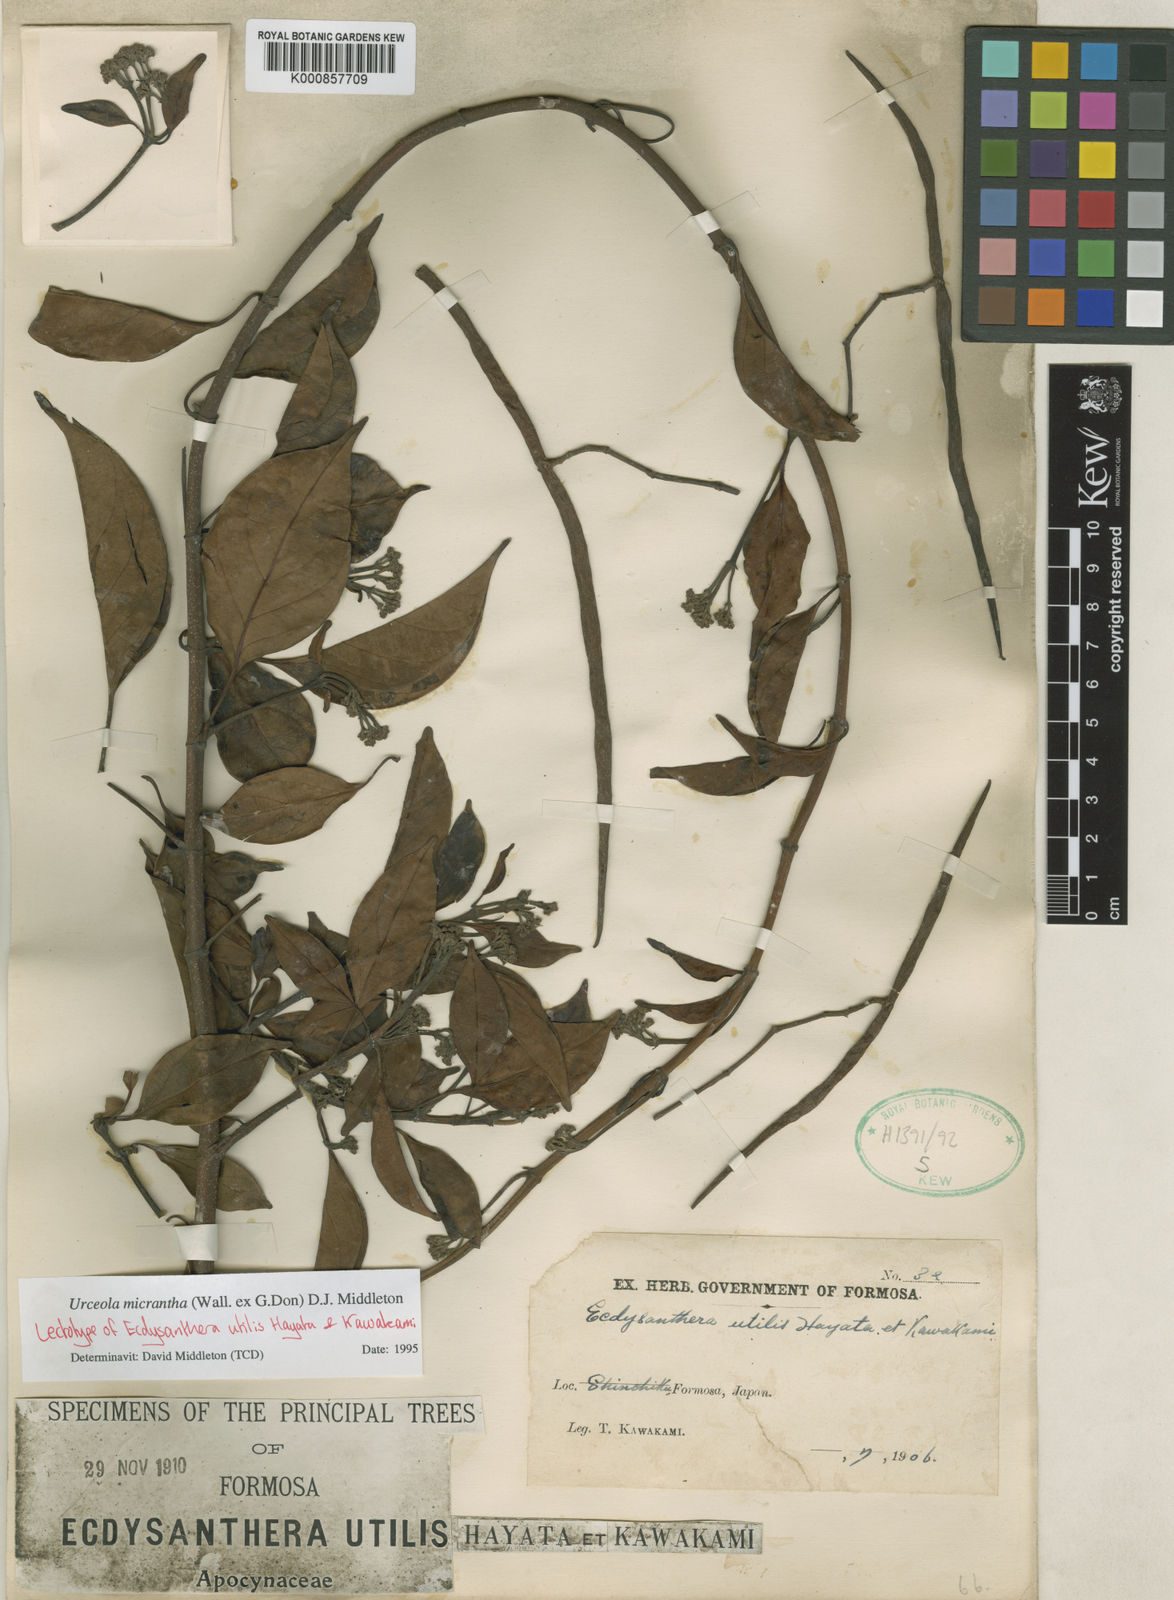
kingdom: Plantae
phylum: Tracheophyta
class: Magnoliopsida
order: Gentianales
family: Apocynaceae
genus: Urceola
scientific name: Urceola micrantha
